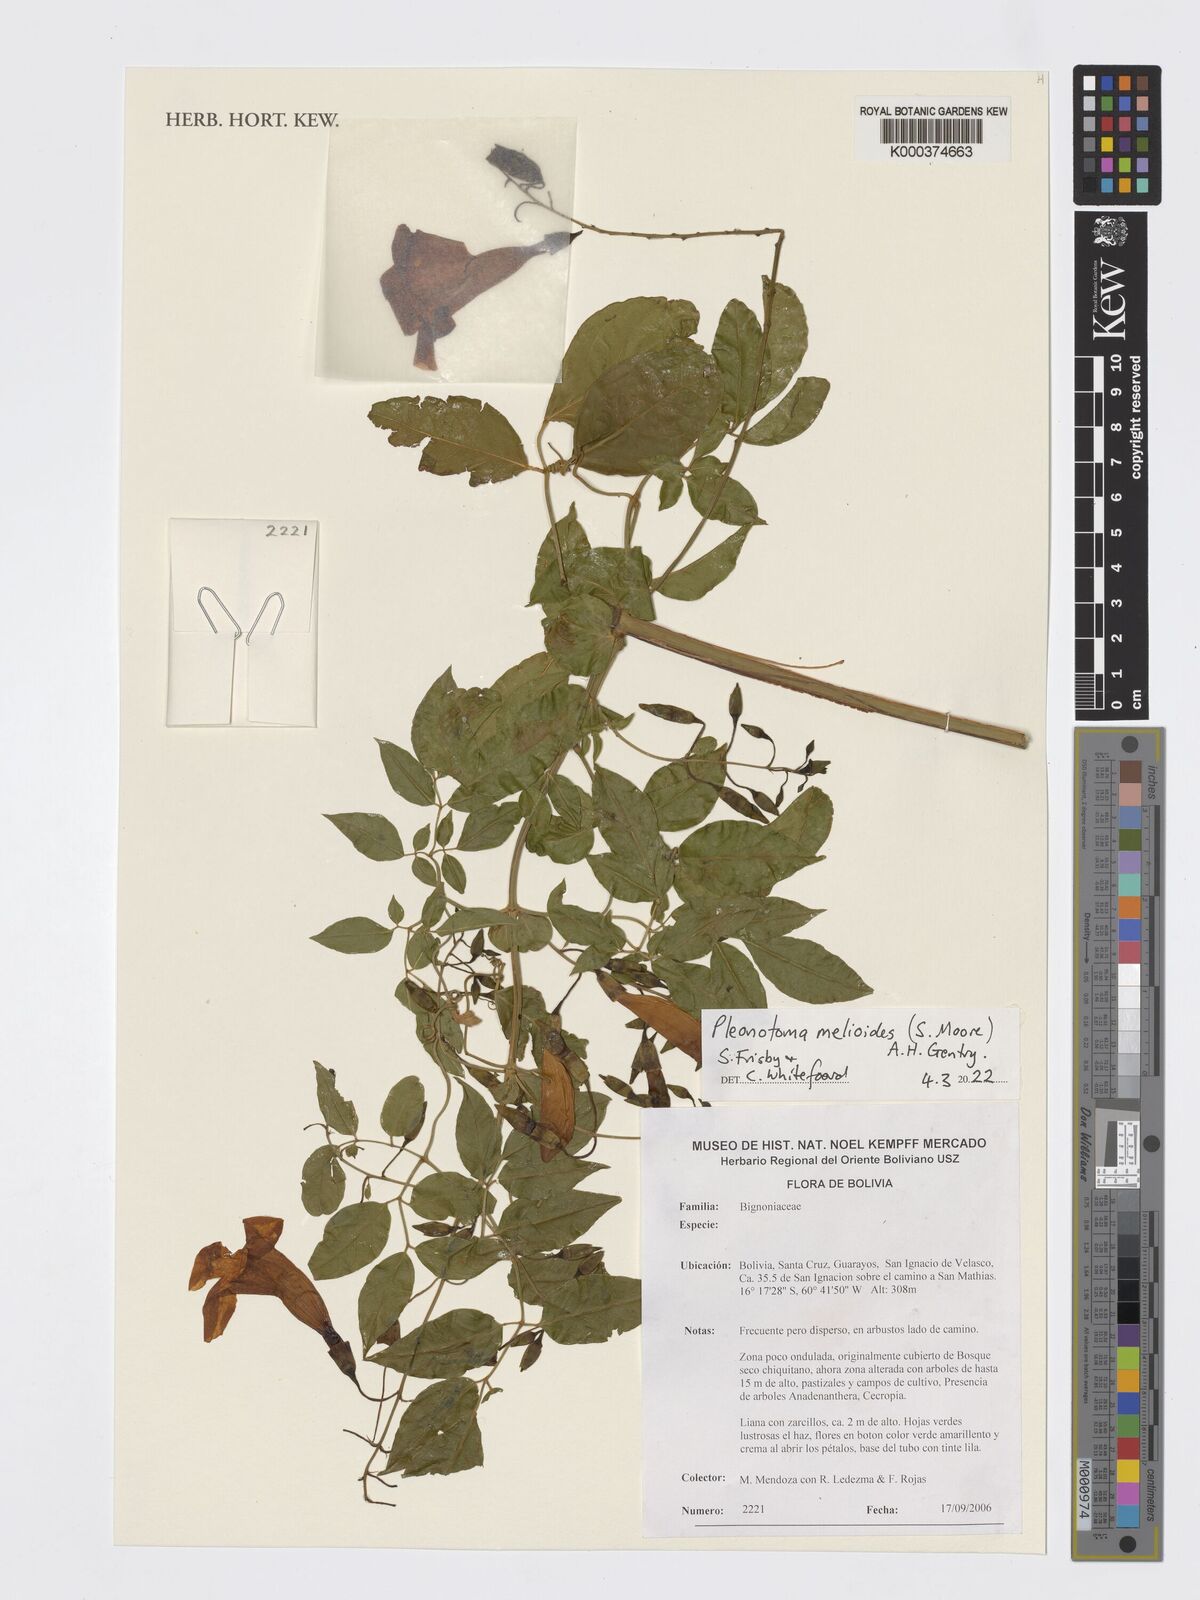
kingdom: Plantae
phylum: Tracheophyta
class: Magnoliopsida
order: Lamiales
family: Bignoniaceae
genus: Pleonotoma
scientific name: Pleonotoma melioides
